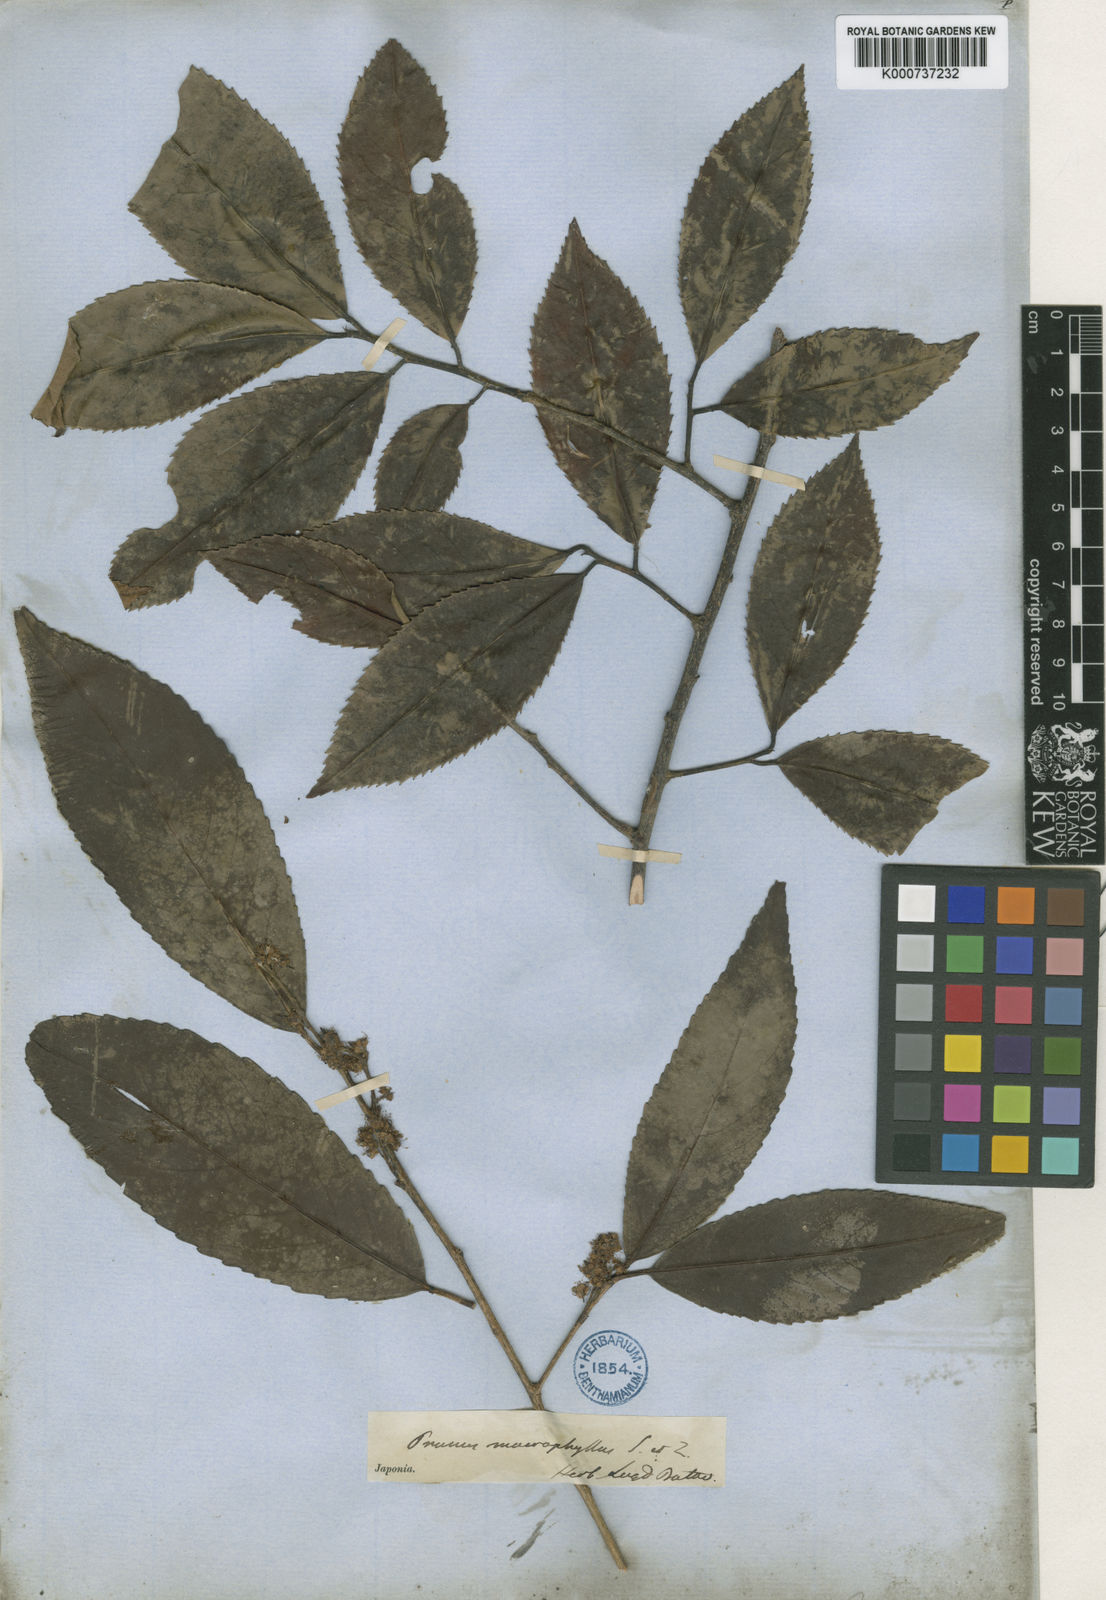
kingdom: Plantae
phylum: Tracheophyta
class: Magnoliopsida
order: Rosales
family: Rosaceae
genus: Prunus
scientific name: Prunus zippeliana
